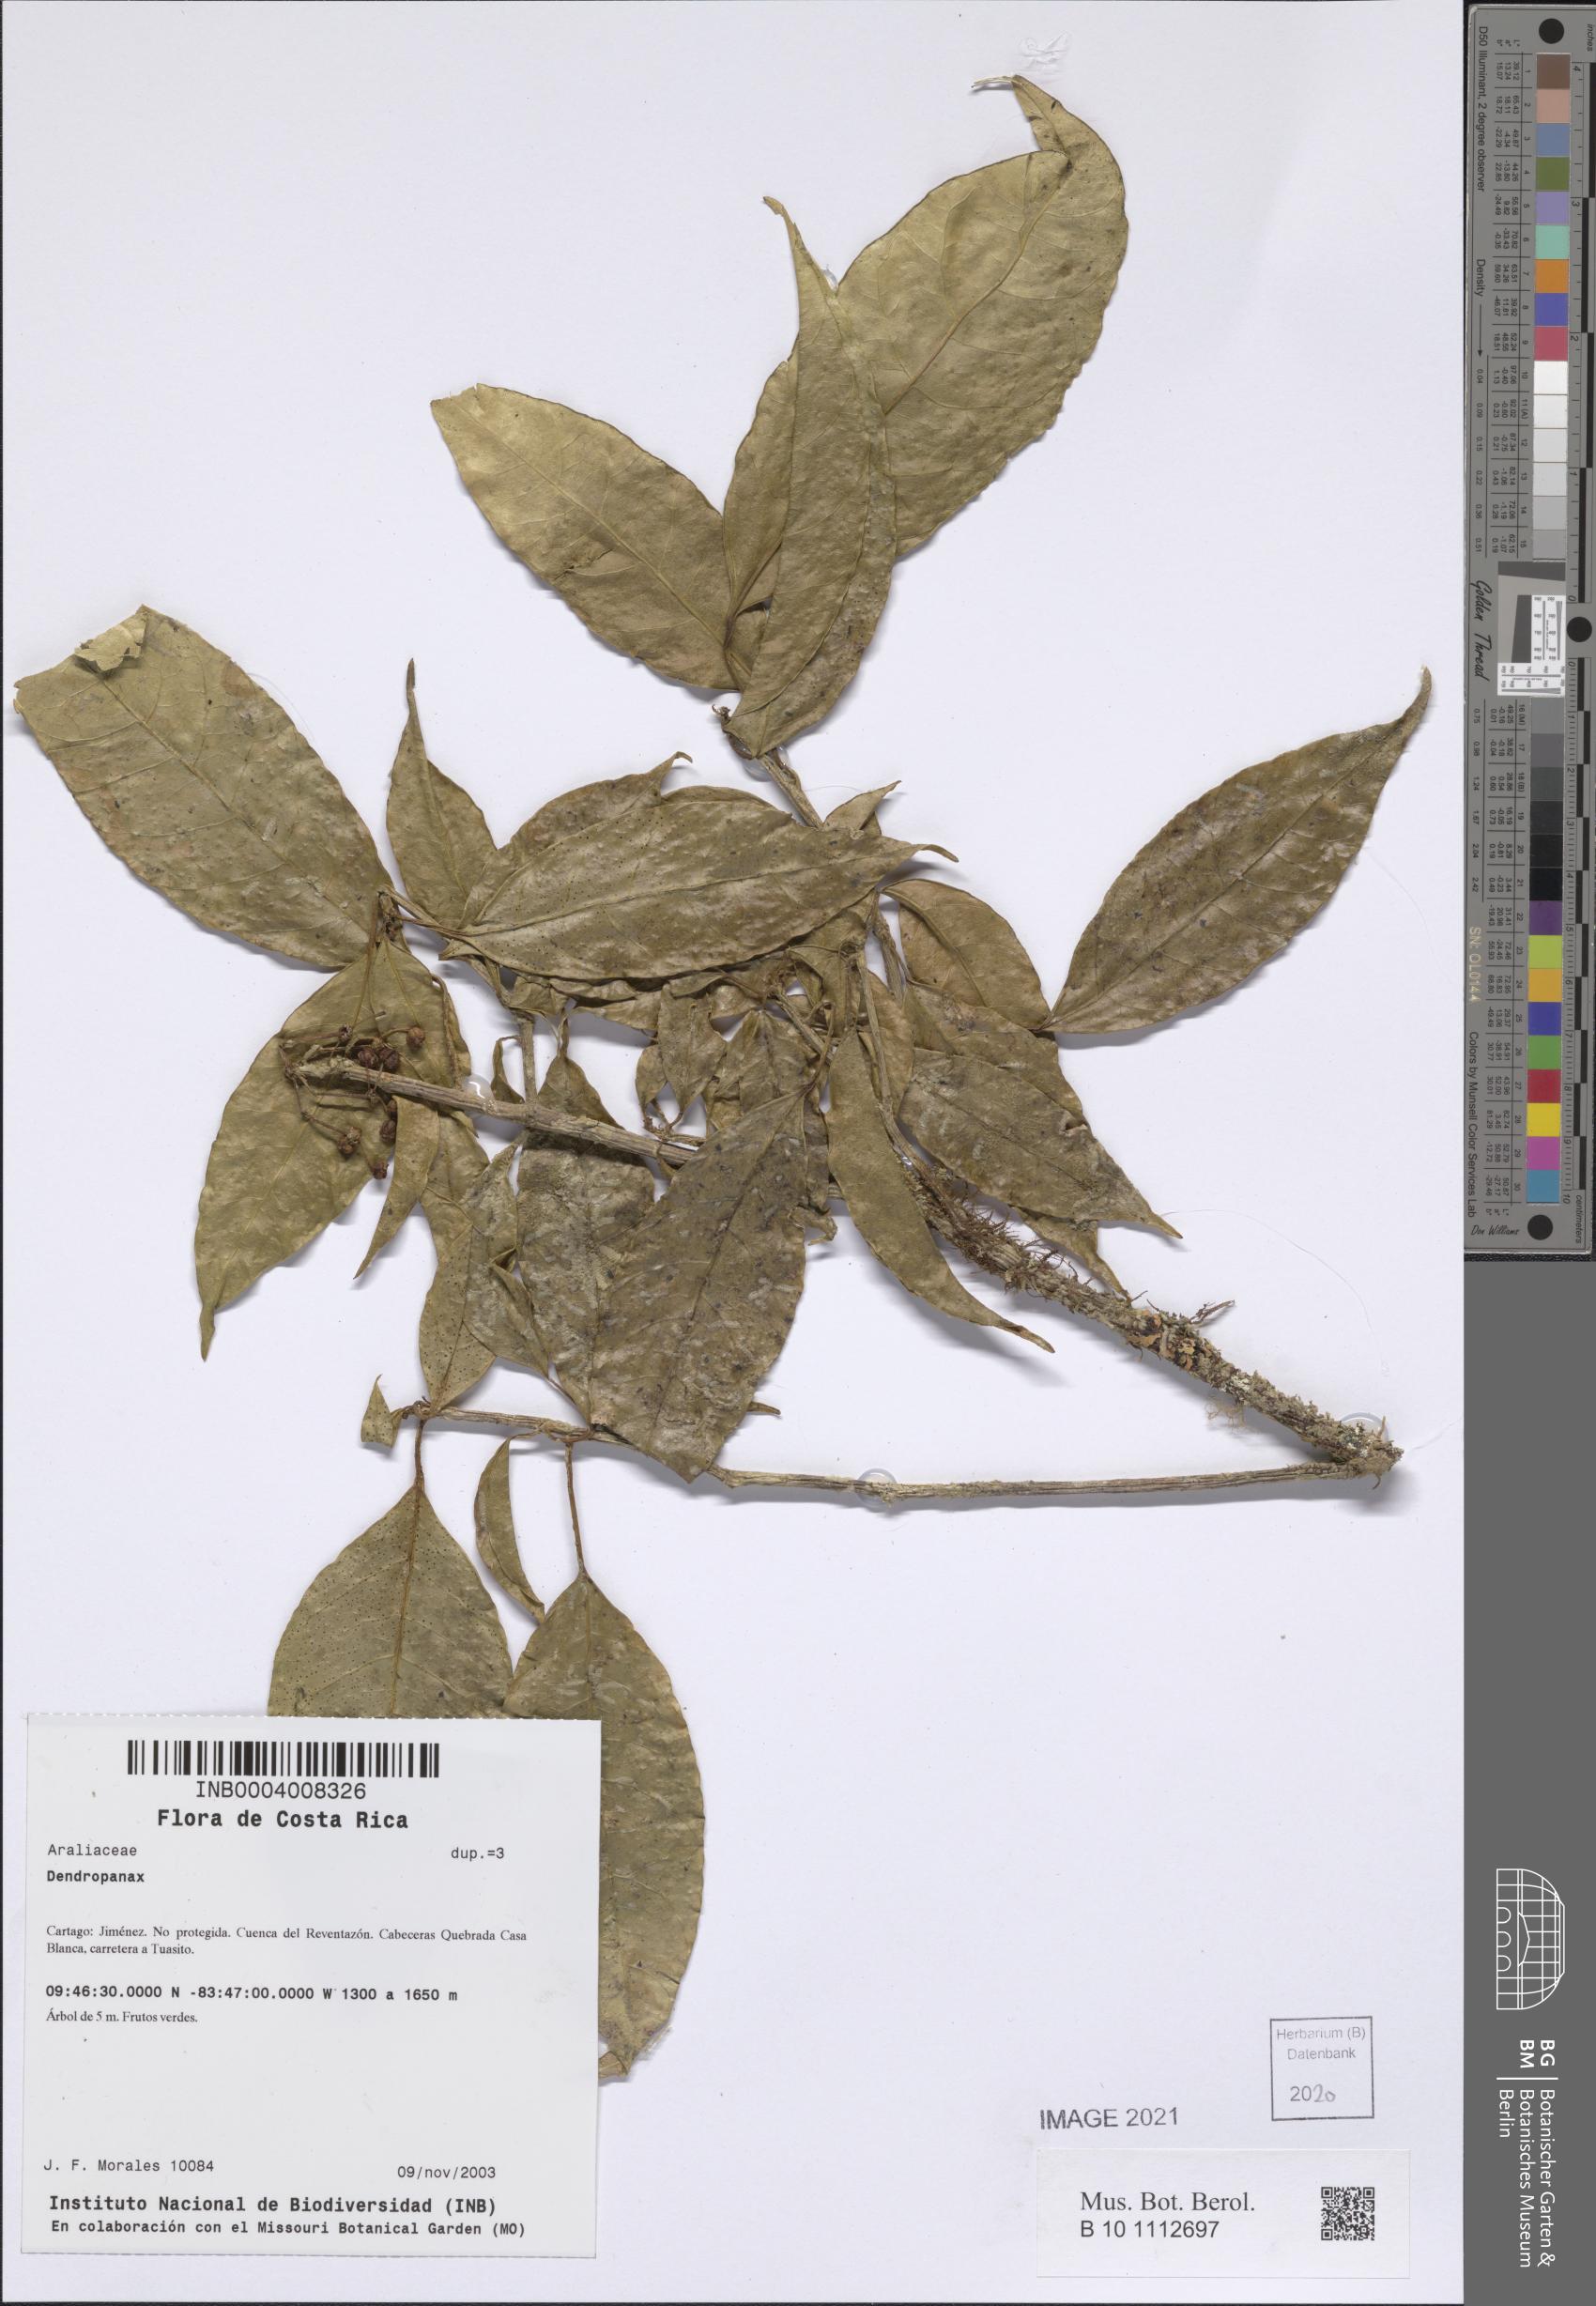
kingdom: Plantae
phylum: Tracheophyta
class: Magnoliopsida
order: Apiales
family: Araliaceae
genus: Dendropanax
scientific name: Dendropanax
